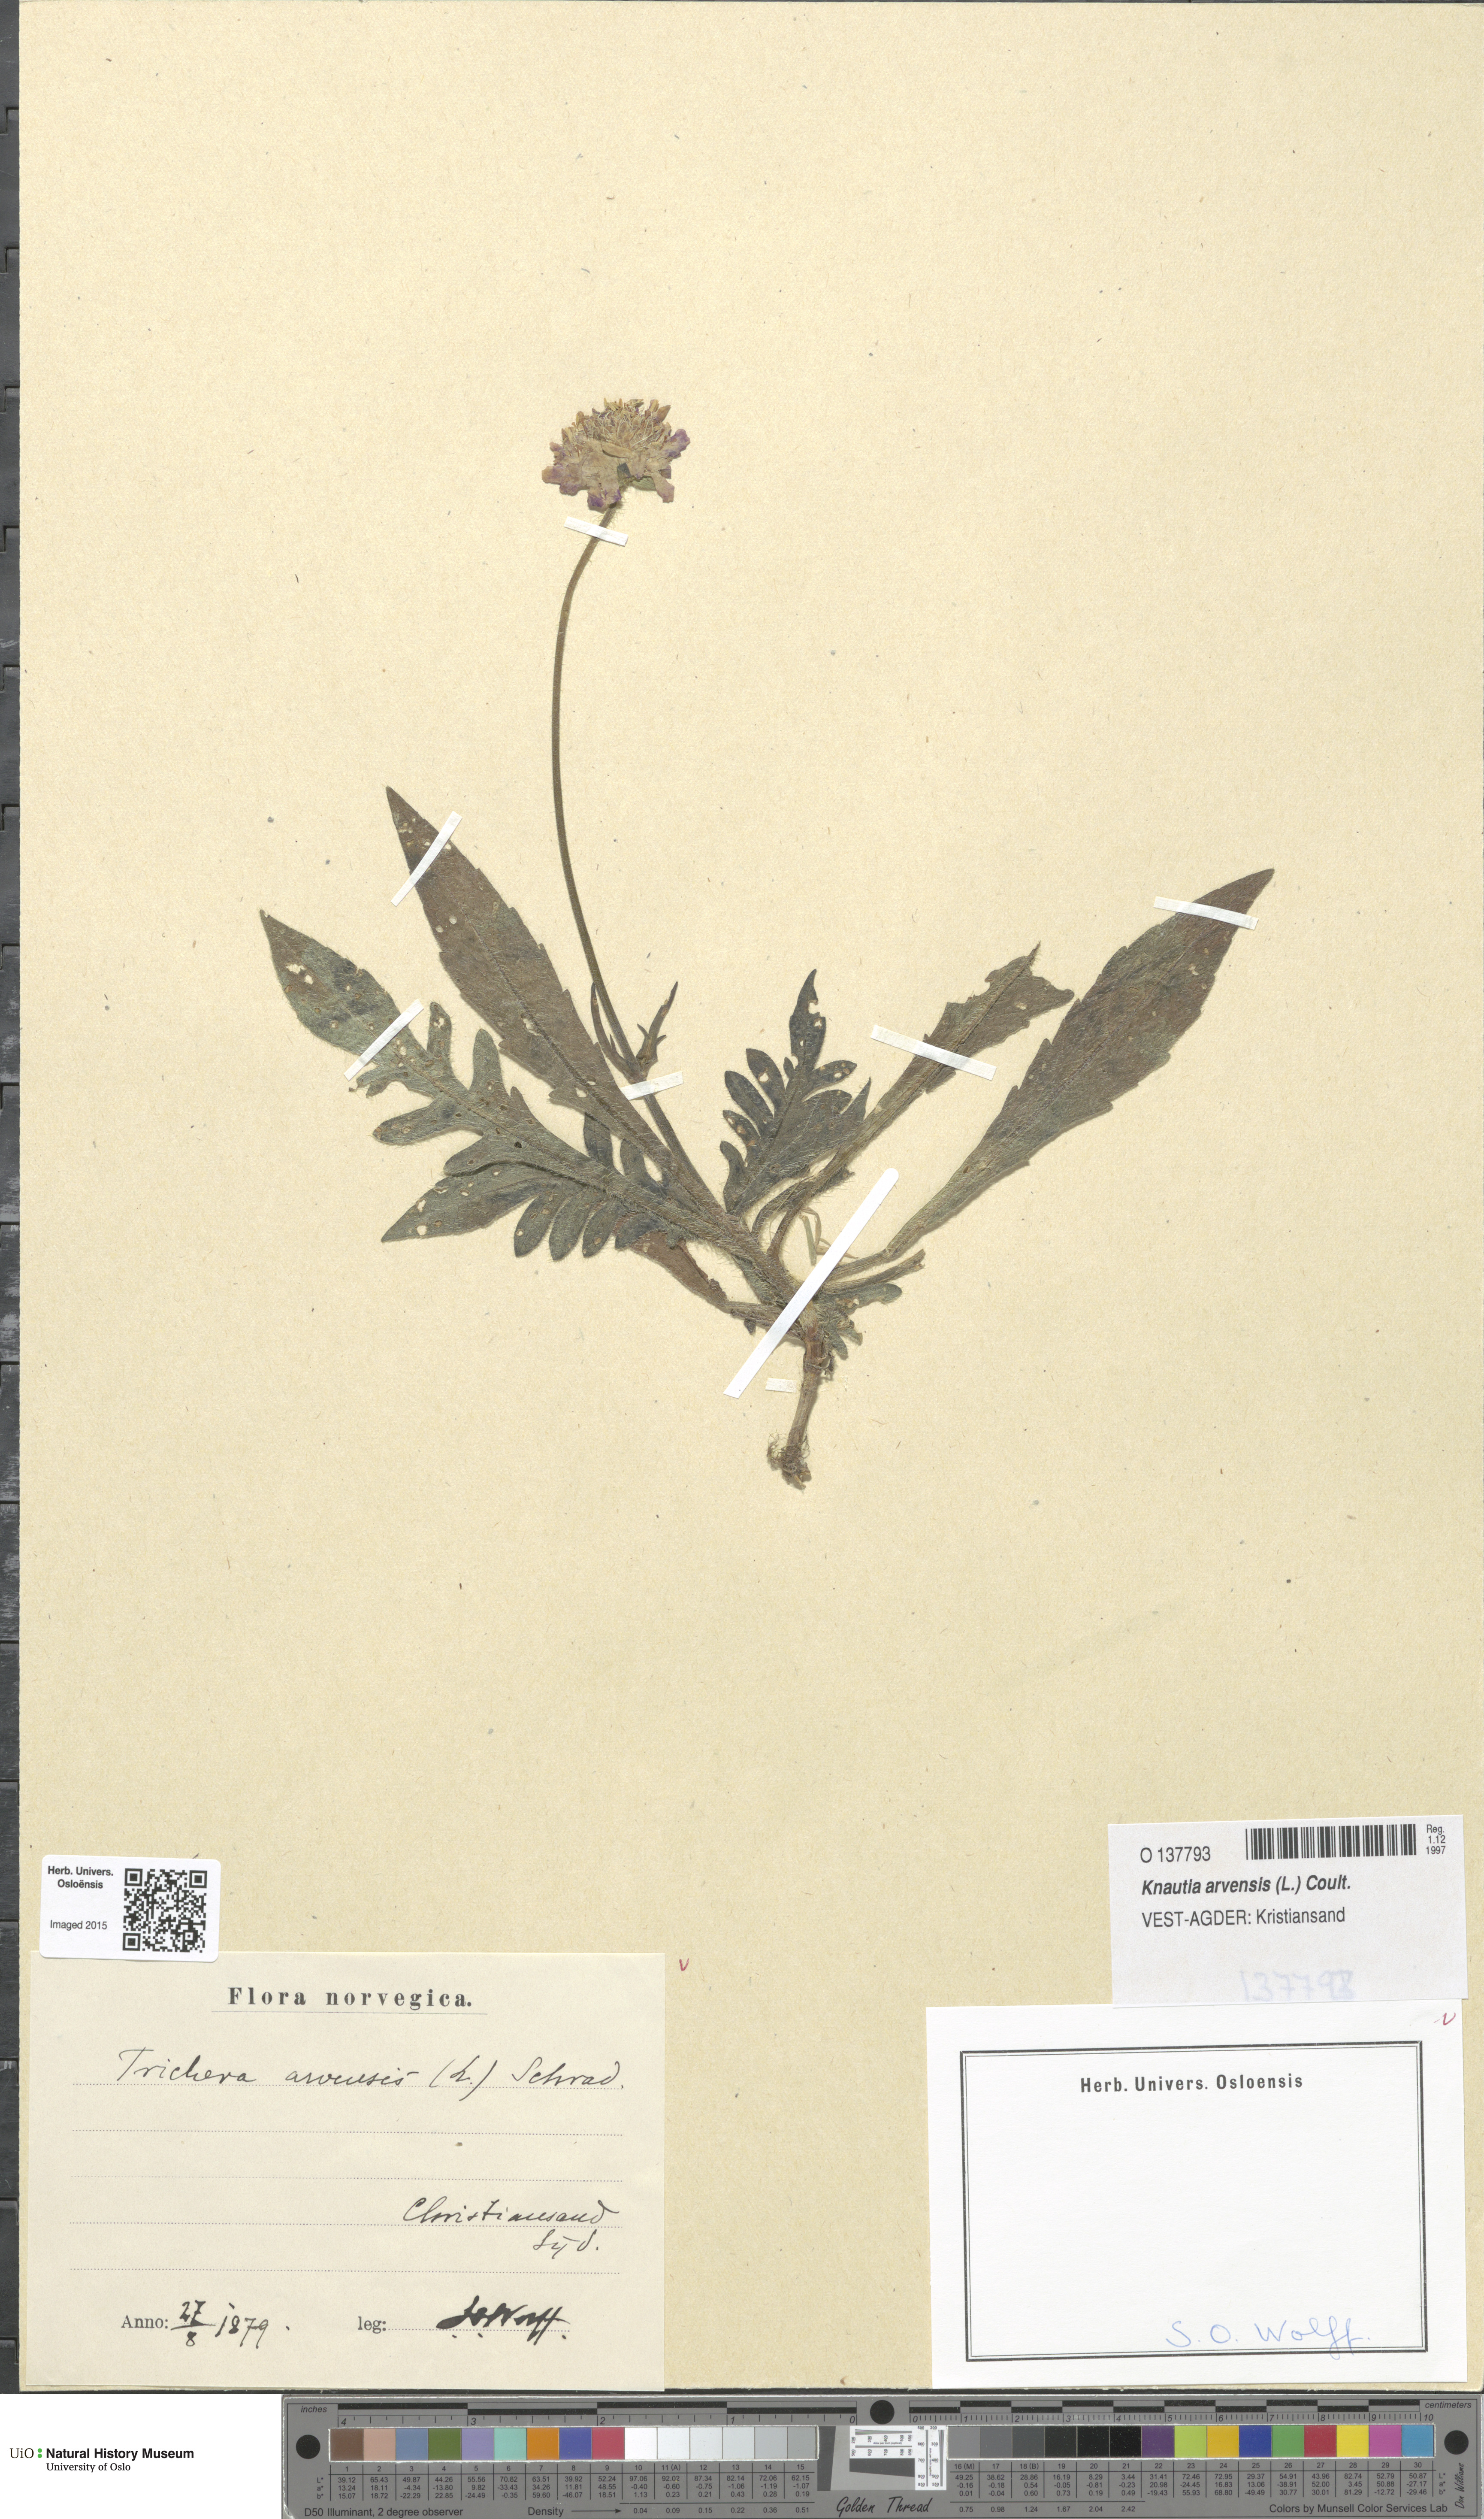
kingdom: Plantae
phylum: Tracheophyta
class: Magnoliopsida
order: Dipsacales
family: Caprifoliaceae
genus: Knautia
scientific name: Knautia arvensis
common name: Field scabiosa
